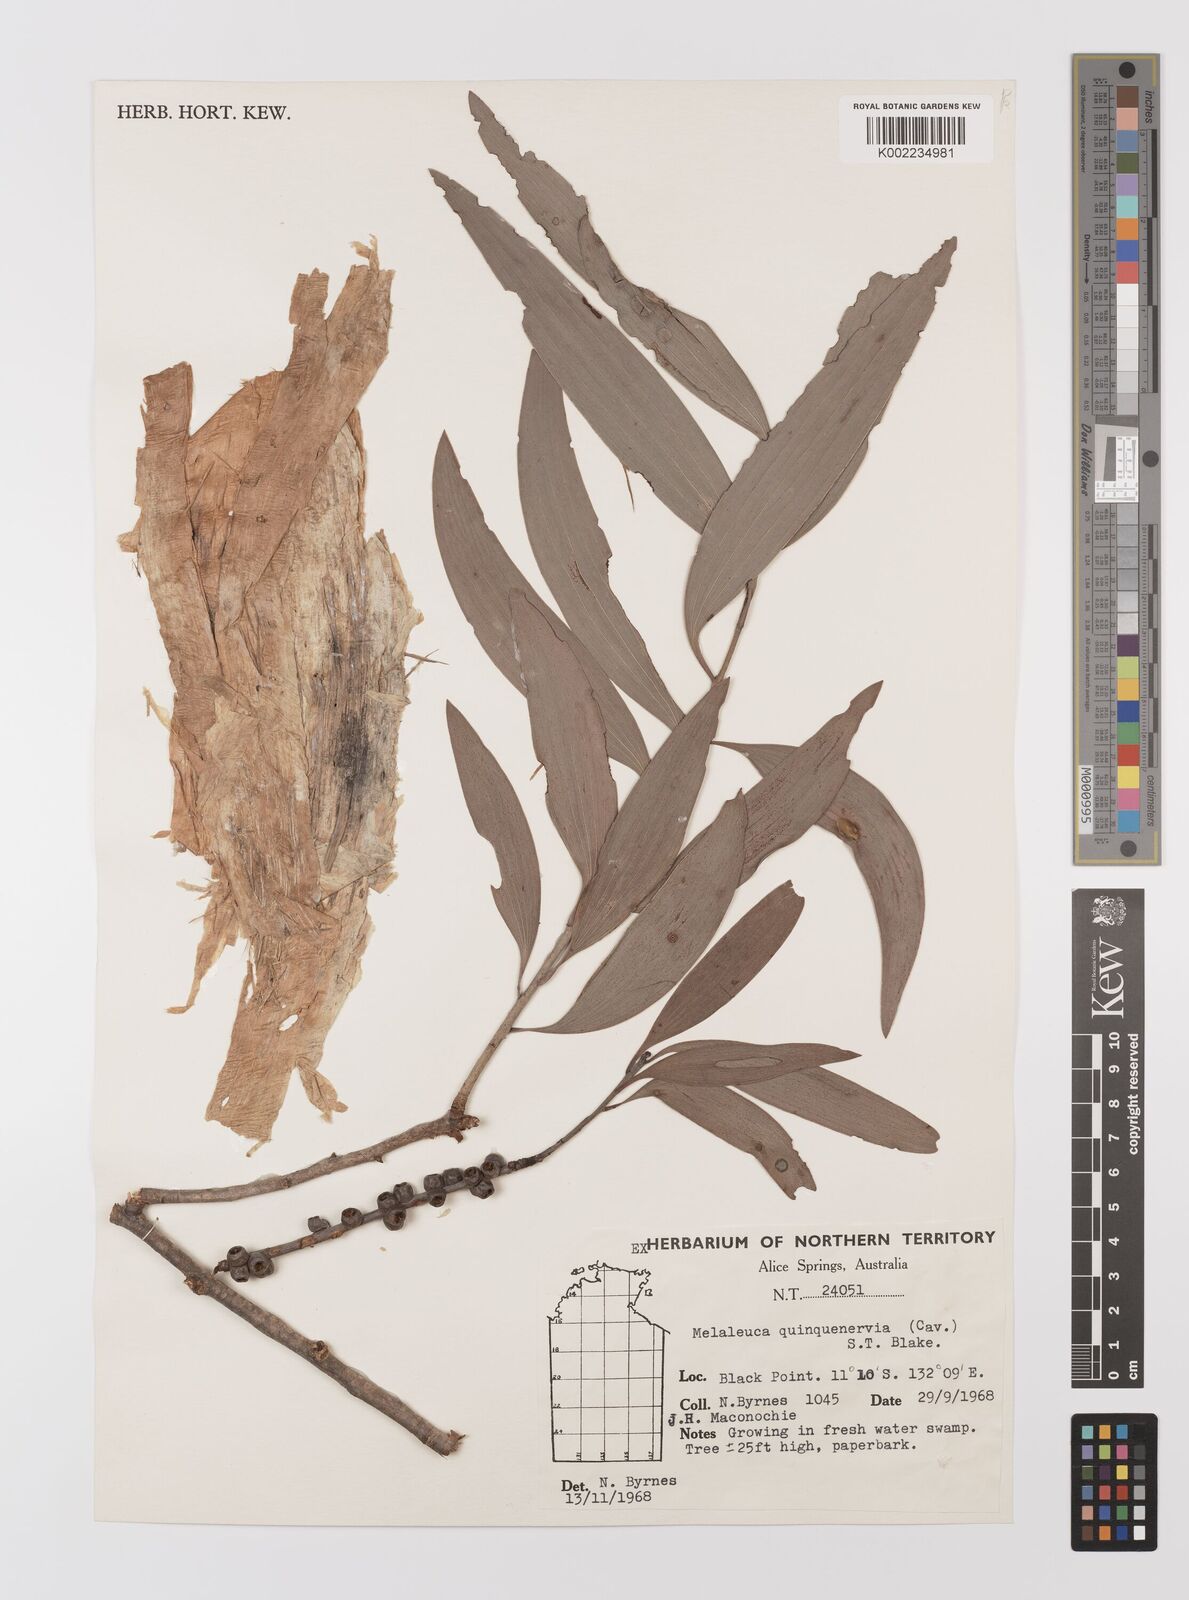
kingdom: Plantae
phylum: Tracheophyta
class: Magnoliopsida
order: Myrtales
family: Myrtaceae
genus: Melaleuca
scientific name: Melaleuca quinquenervia
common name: Punktree
